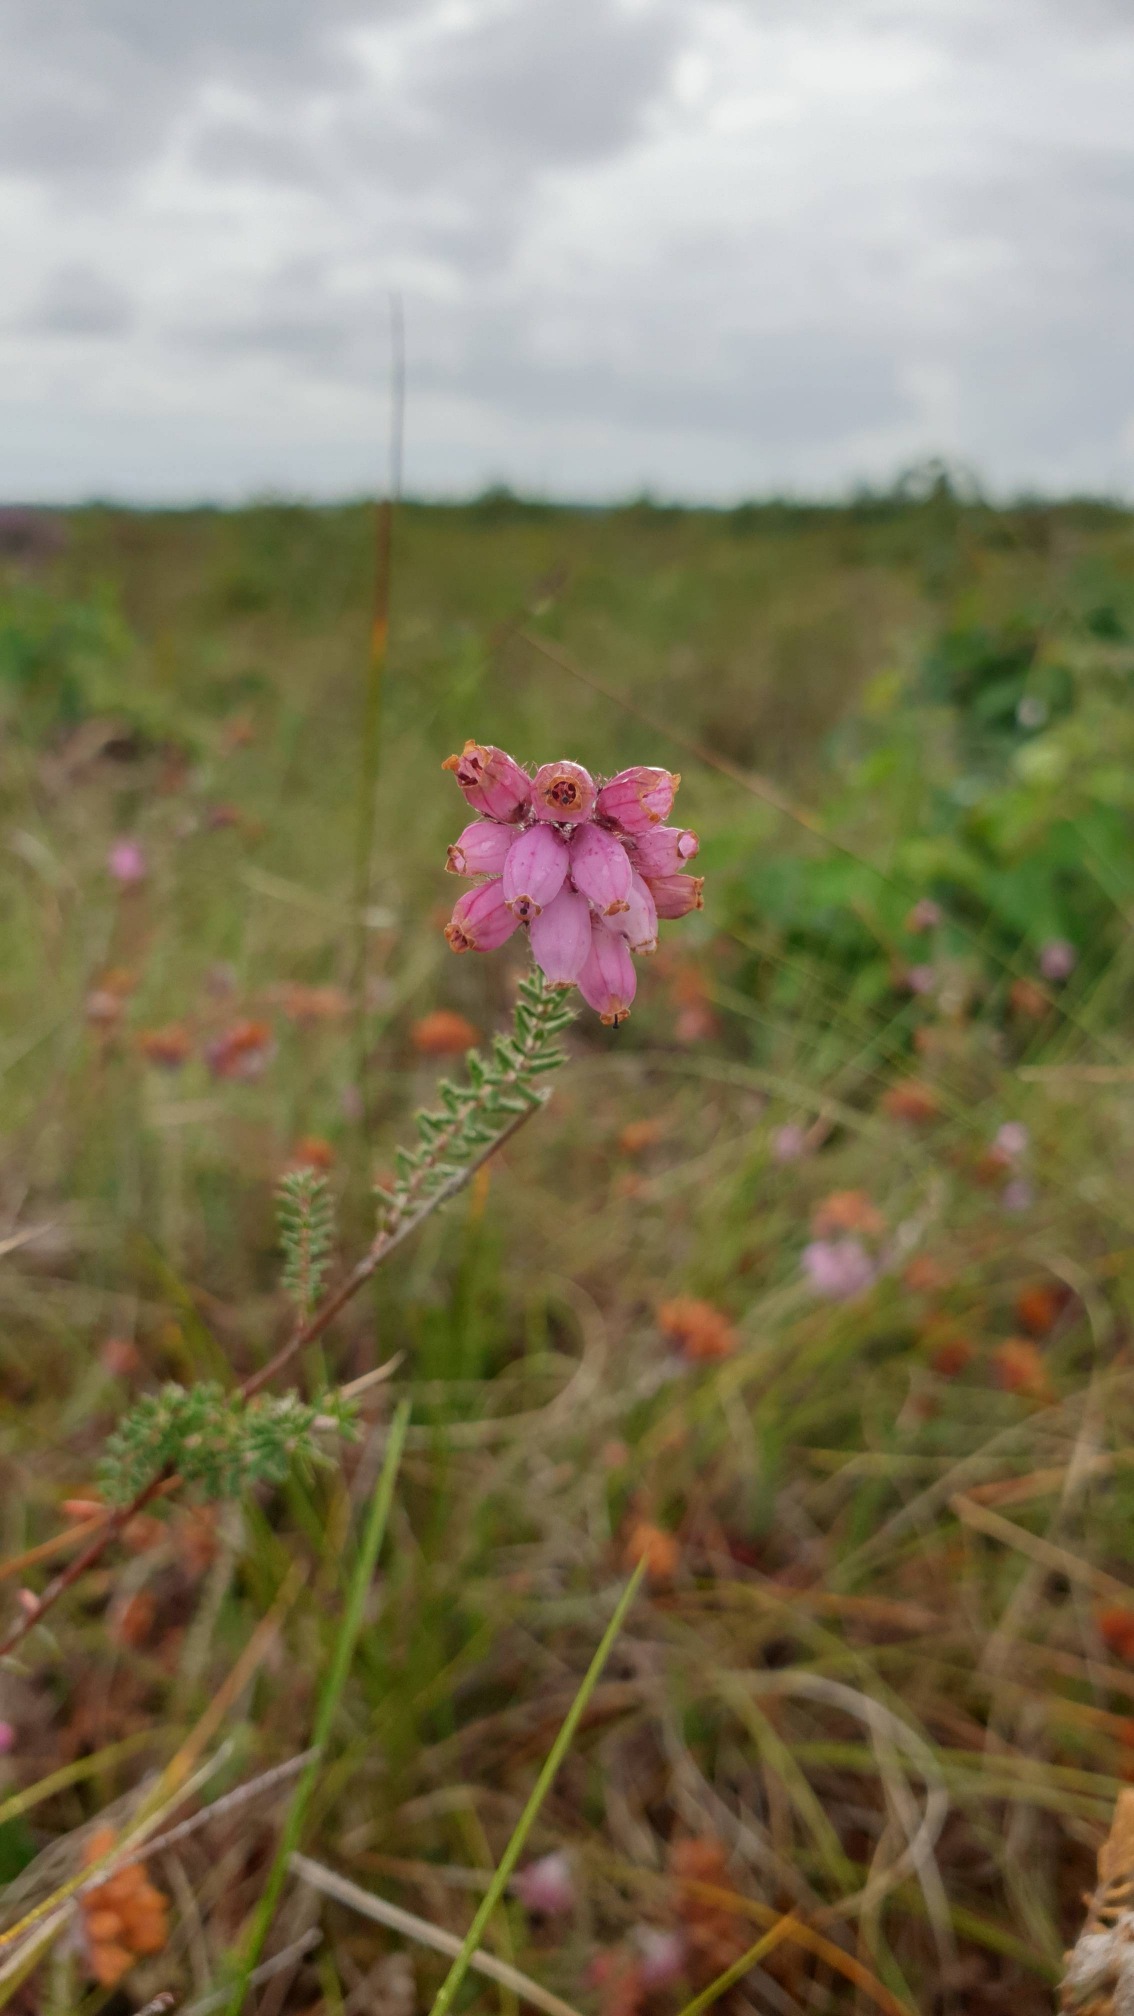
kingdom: Plantae
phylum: Tracheophyta
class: Magnoliopsida
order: Ericales
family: Ericaceae
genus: Erica
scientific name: Erica tetralix
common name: Klokkelyng
